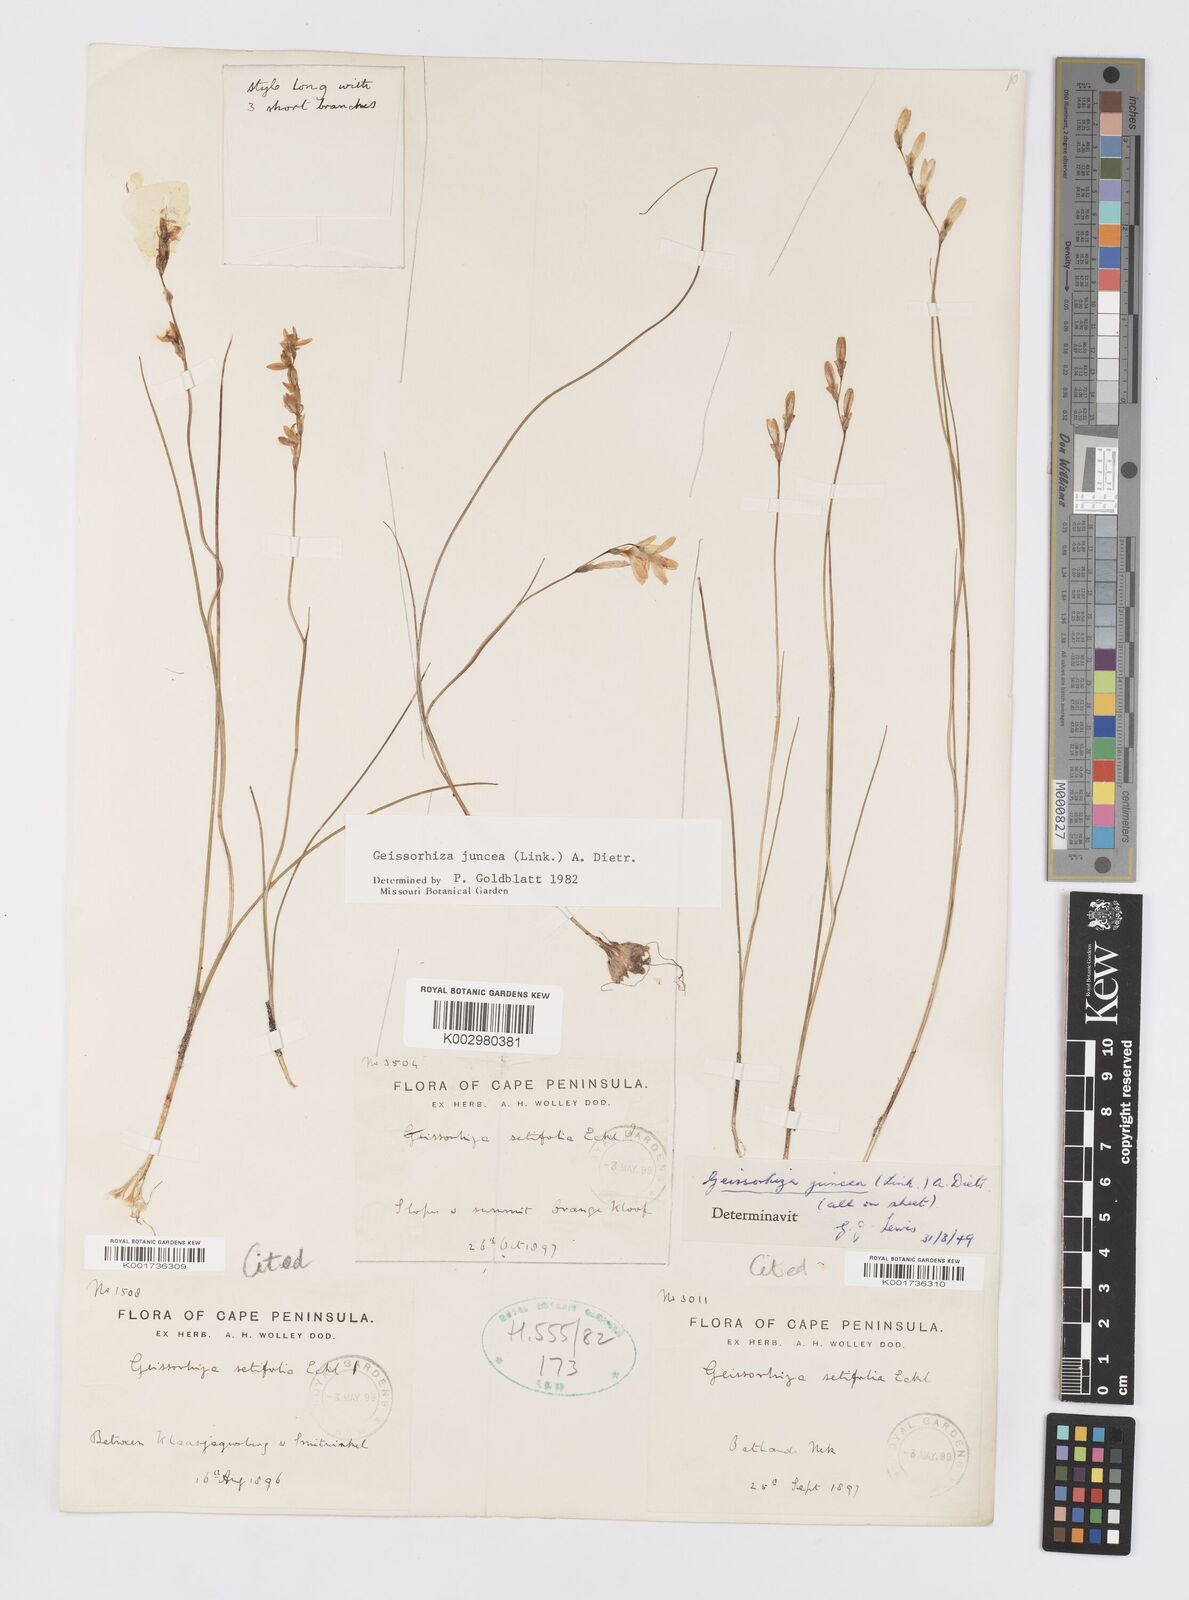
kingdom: Plantae
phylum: Tracheophyta
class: Liliopsida
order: Asparagales
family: Iridaceae
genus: Geissorhiza
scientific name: Geissorhiza juncea
